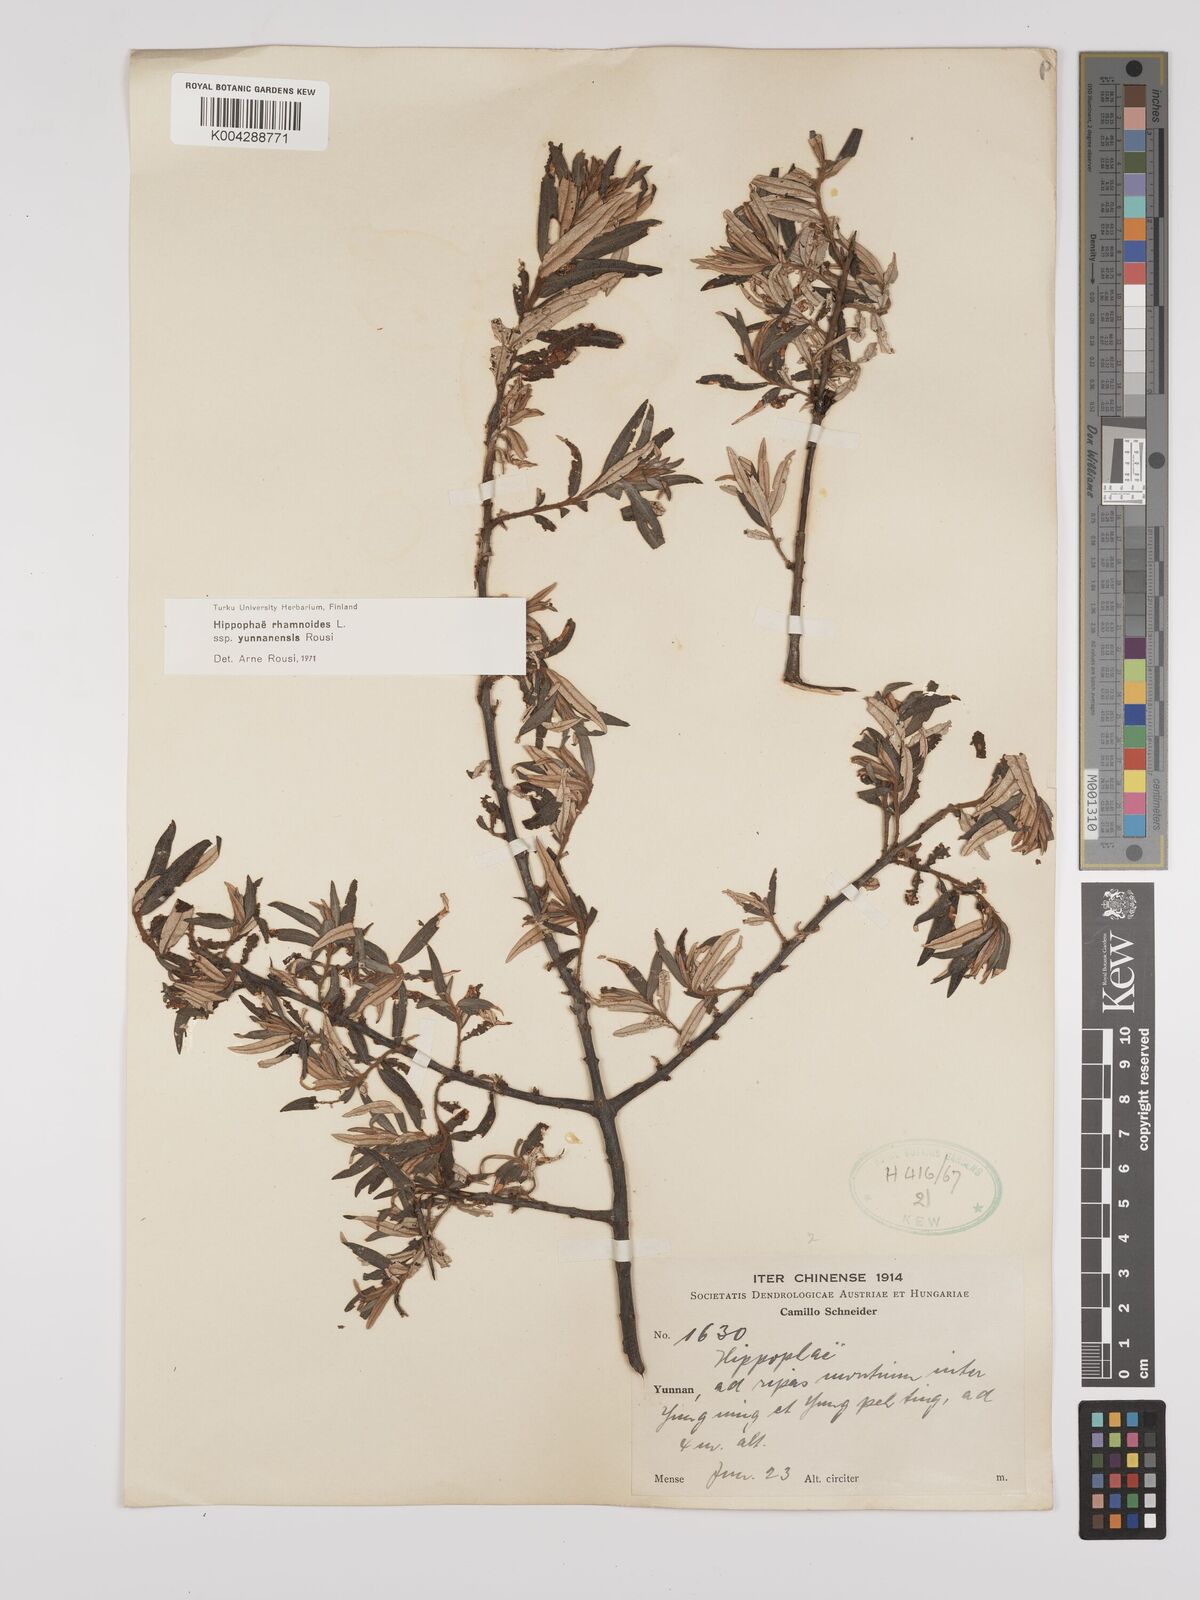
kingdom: Plantae
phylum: Tracheophyta
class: Magnoliopsida
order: Rosales
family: Elaeagnaceae
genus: Hippophae
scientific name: Hippophae rhamnoides
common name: Sea-buckthorn
